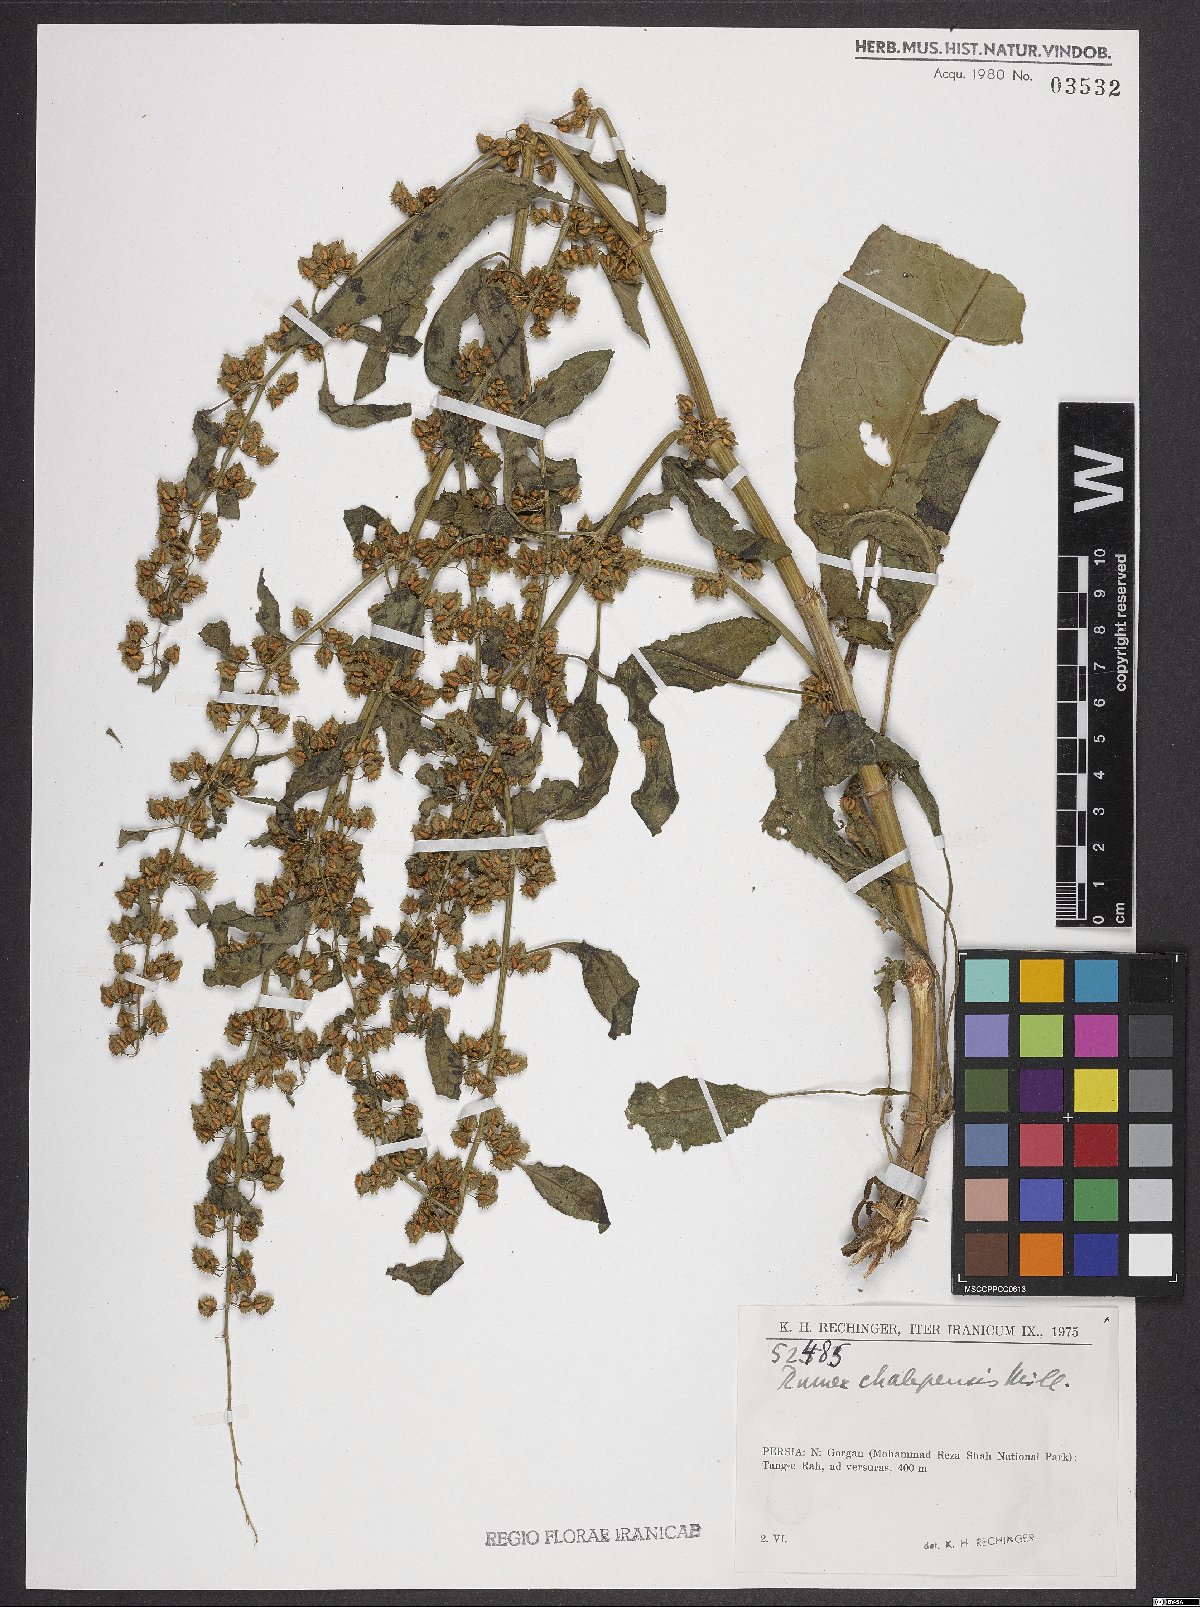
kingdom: Plantae
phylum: Tracheophyta
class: Magnoliopsida
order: Caryophyllales
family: Polygonaceae
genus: Rumex
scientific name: Rumex chalepensis
